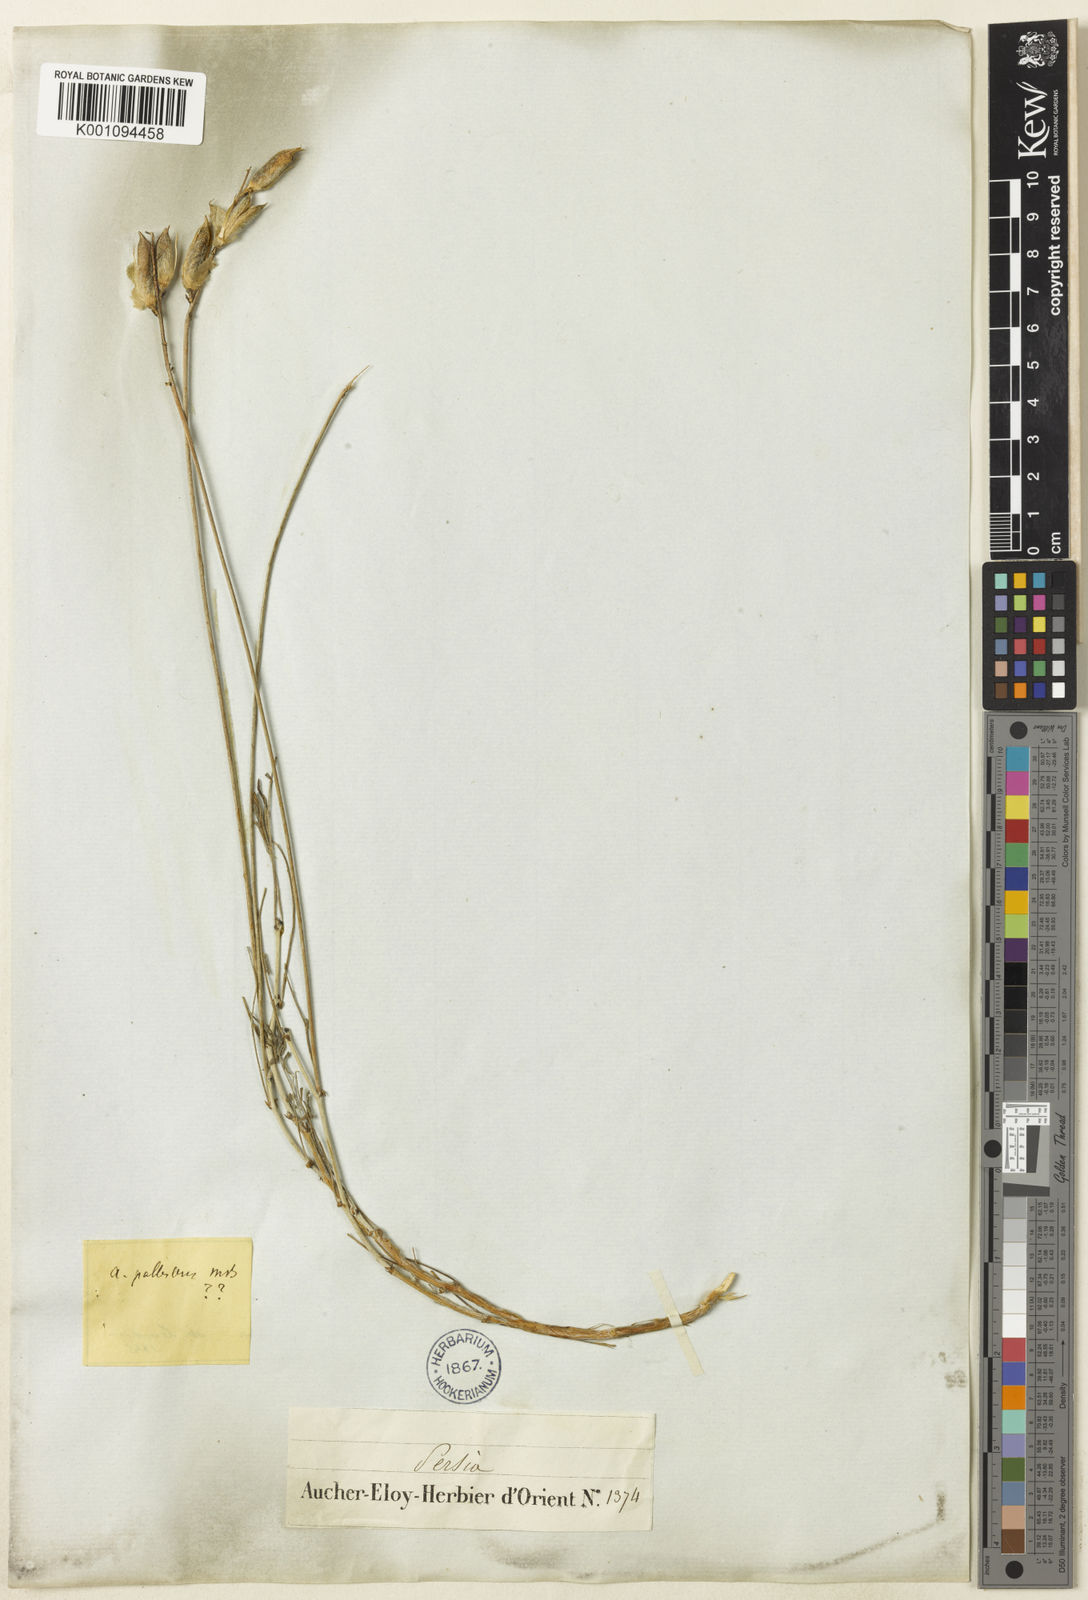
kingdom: Plantae
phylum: Tracheophyta
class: Magnoliopsida
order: Fabales
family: Fabaceae
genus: Astragalus
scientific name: Astragalus
